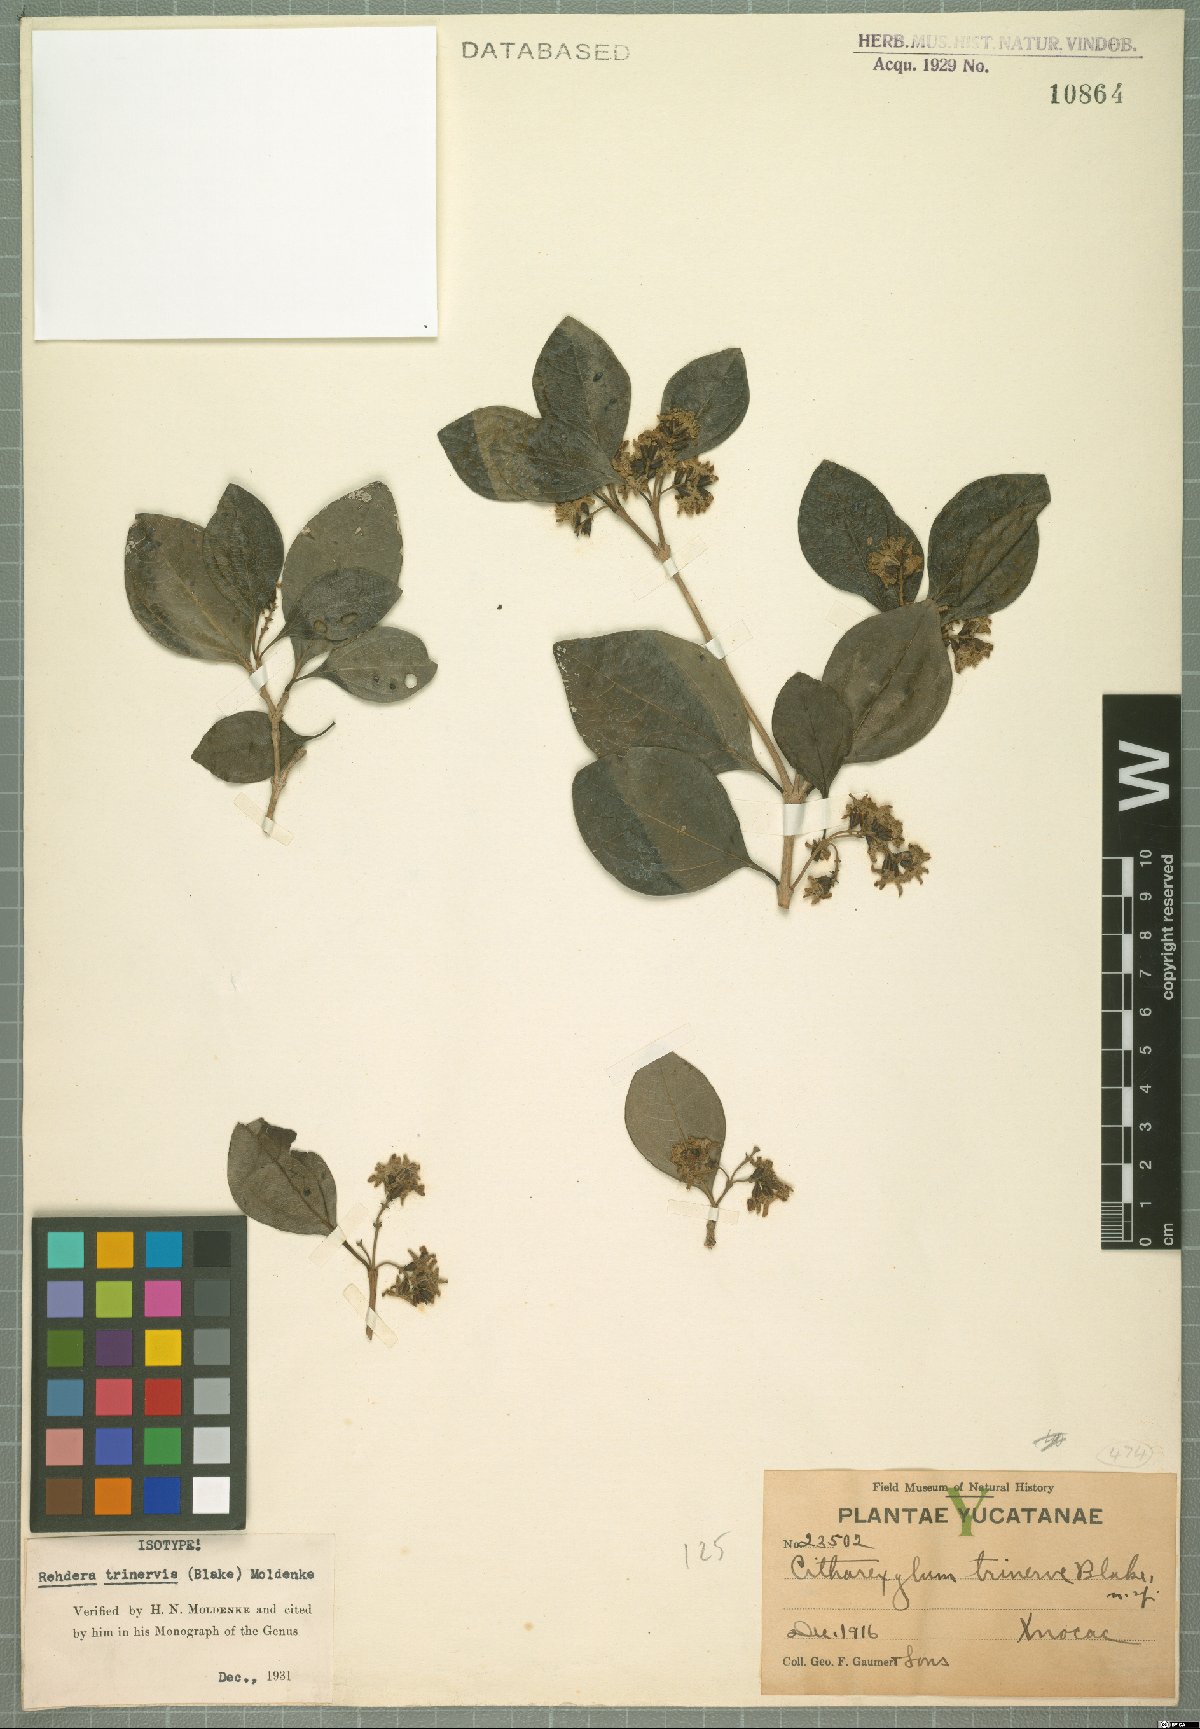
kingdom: Plantae
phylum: Tracheophyta
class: Magnoliopsida
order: Lamiales
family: Verbenaceae
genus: Rehdera
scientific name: Rehdera trinervis
